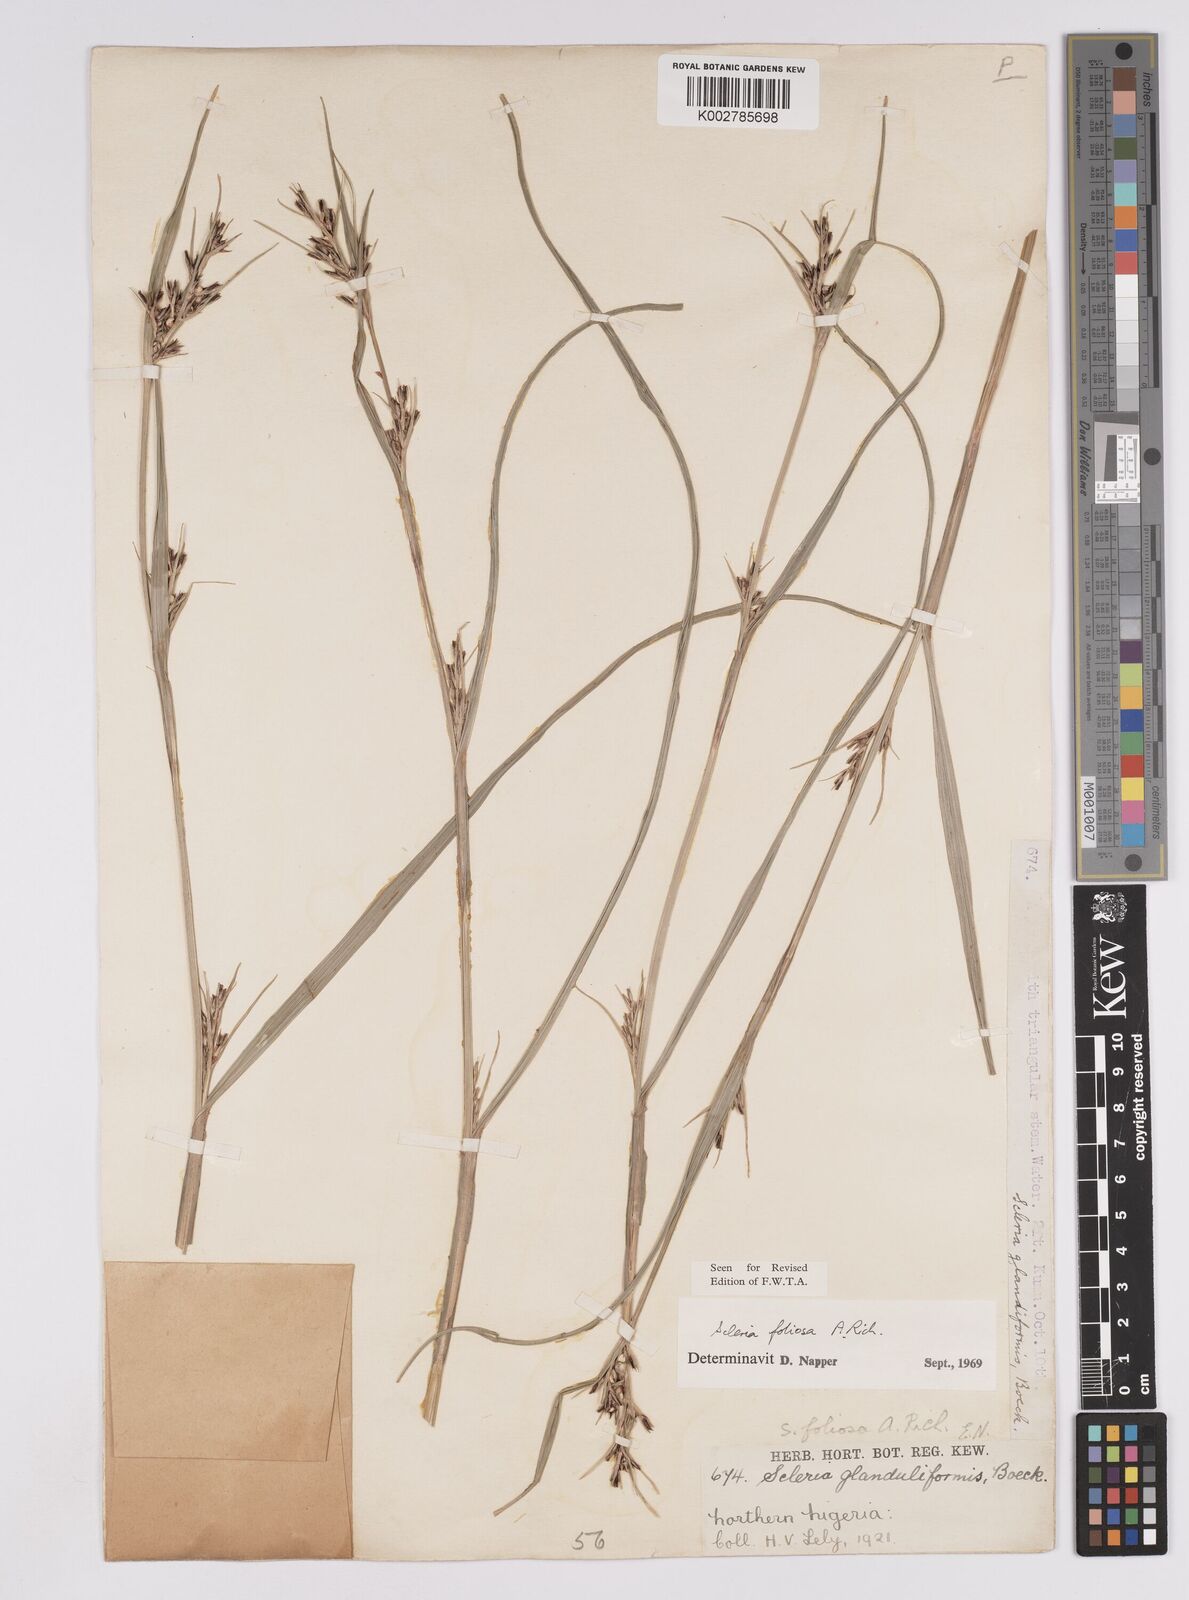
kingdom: Plantae
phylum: Tracheophyta
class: Liliopsida
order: Poales
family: Cyperaceae
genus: Scleria
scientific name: Scleria foliosa
